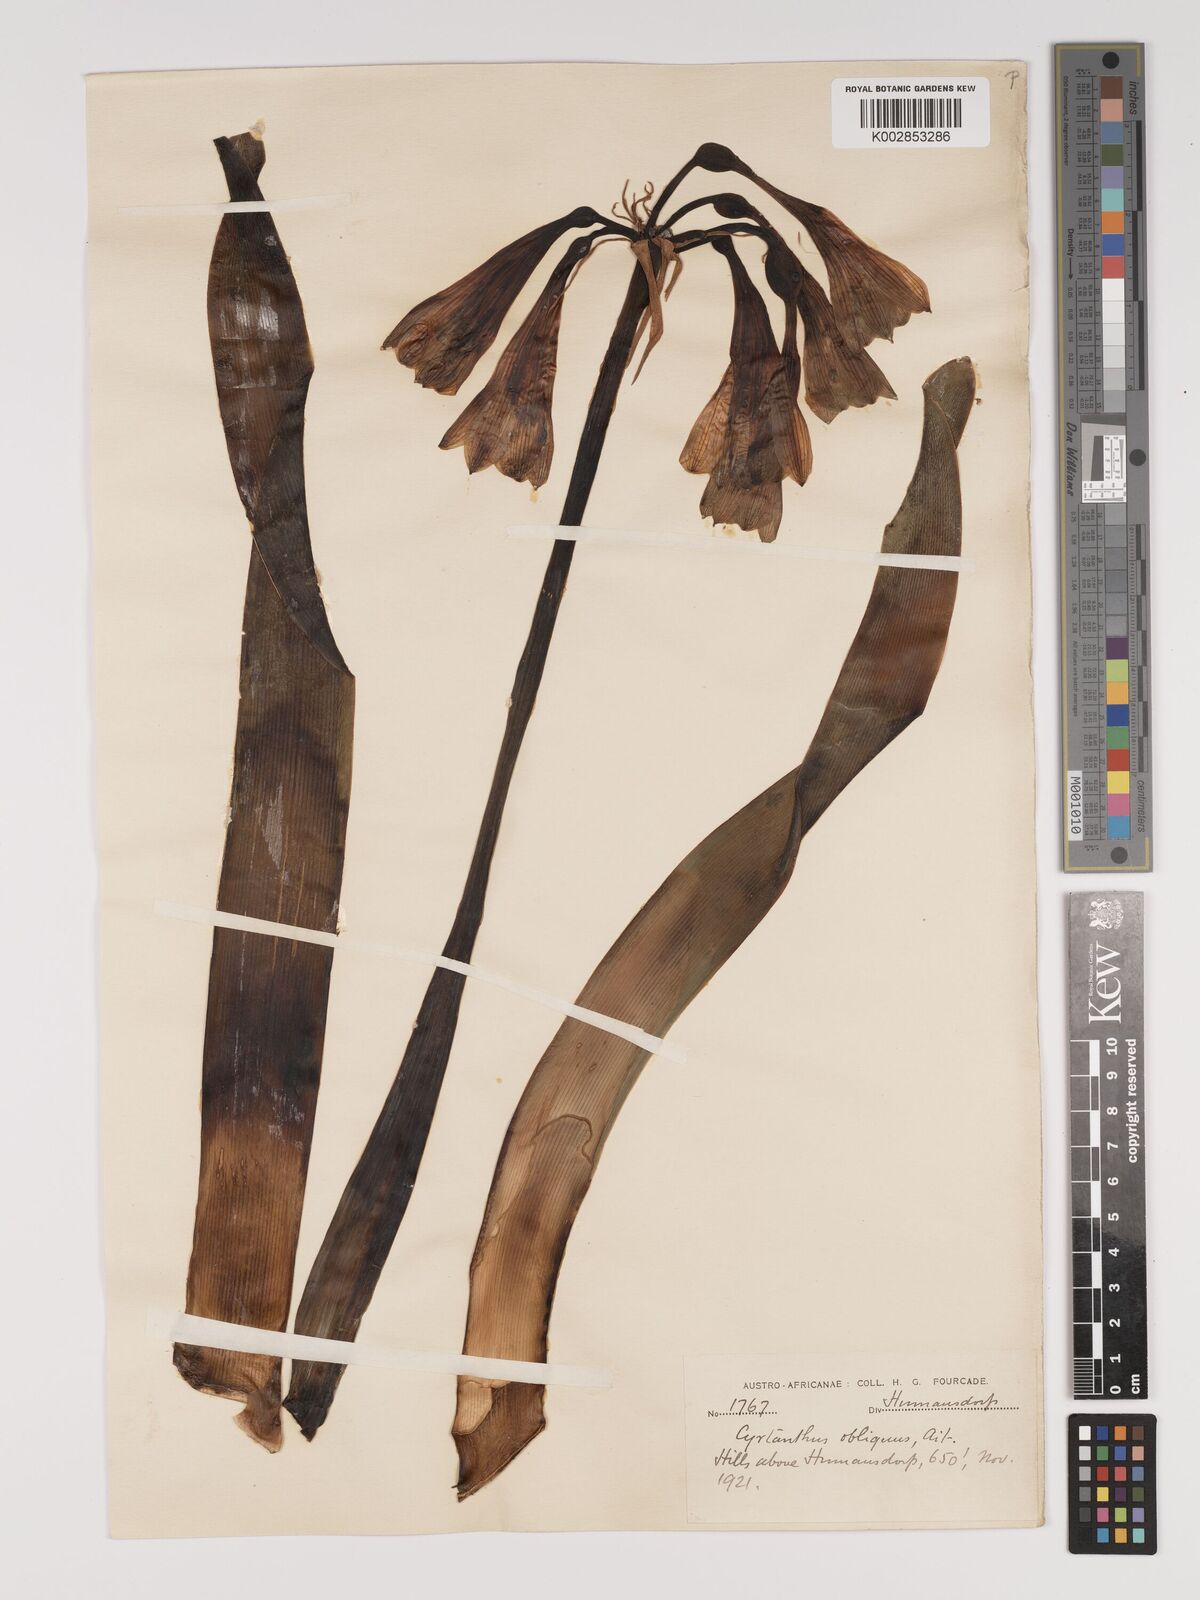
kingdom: Plantae
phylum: Tracheophyta
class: Liliopsida
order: Asparagales
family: Amaryllidaceae
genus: Cyrtanthus
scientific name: Cyrtanthus obliquus
